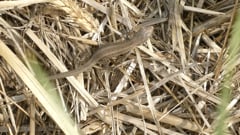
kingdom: Animalia
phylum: Chordata
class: Squamata
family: Lacertidae
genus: Lacerta
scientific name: Lacerta agilis
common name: Sand lizard
